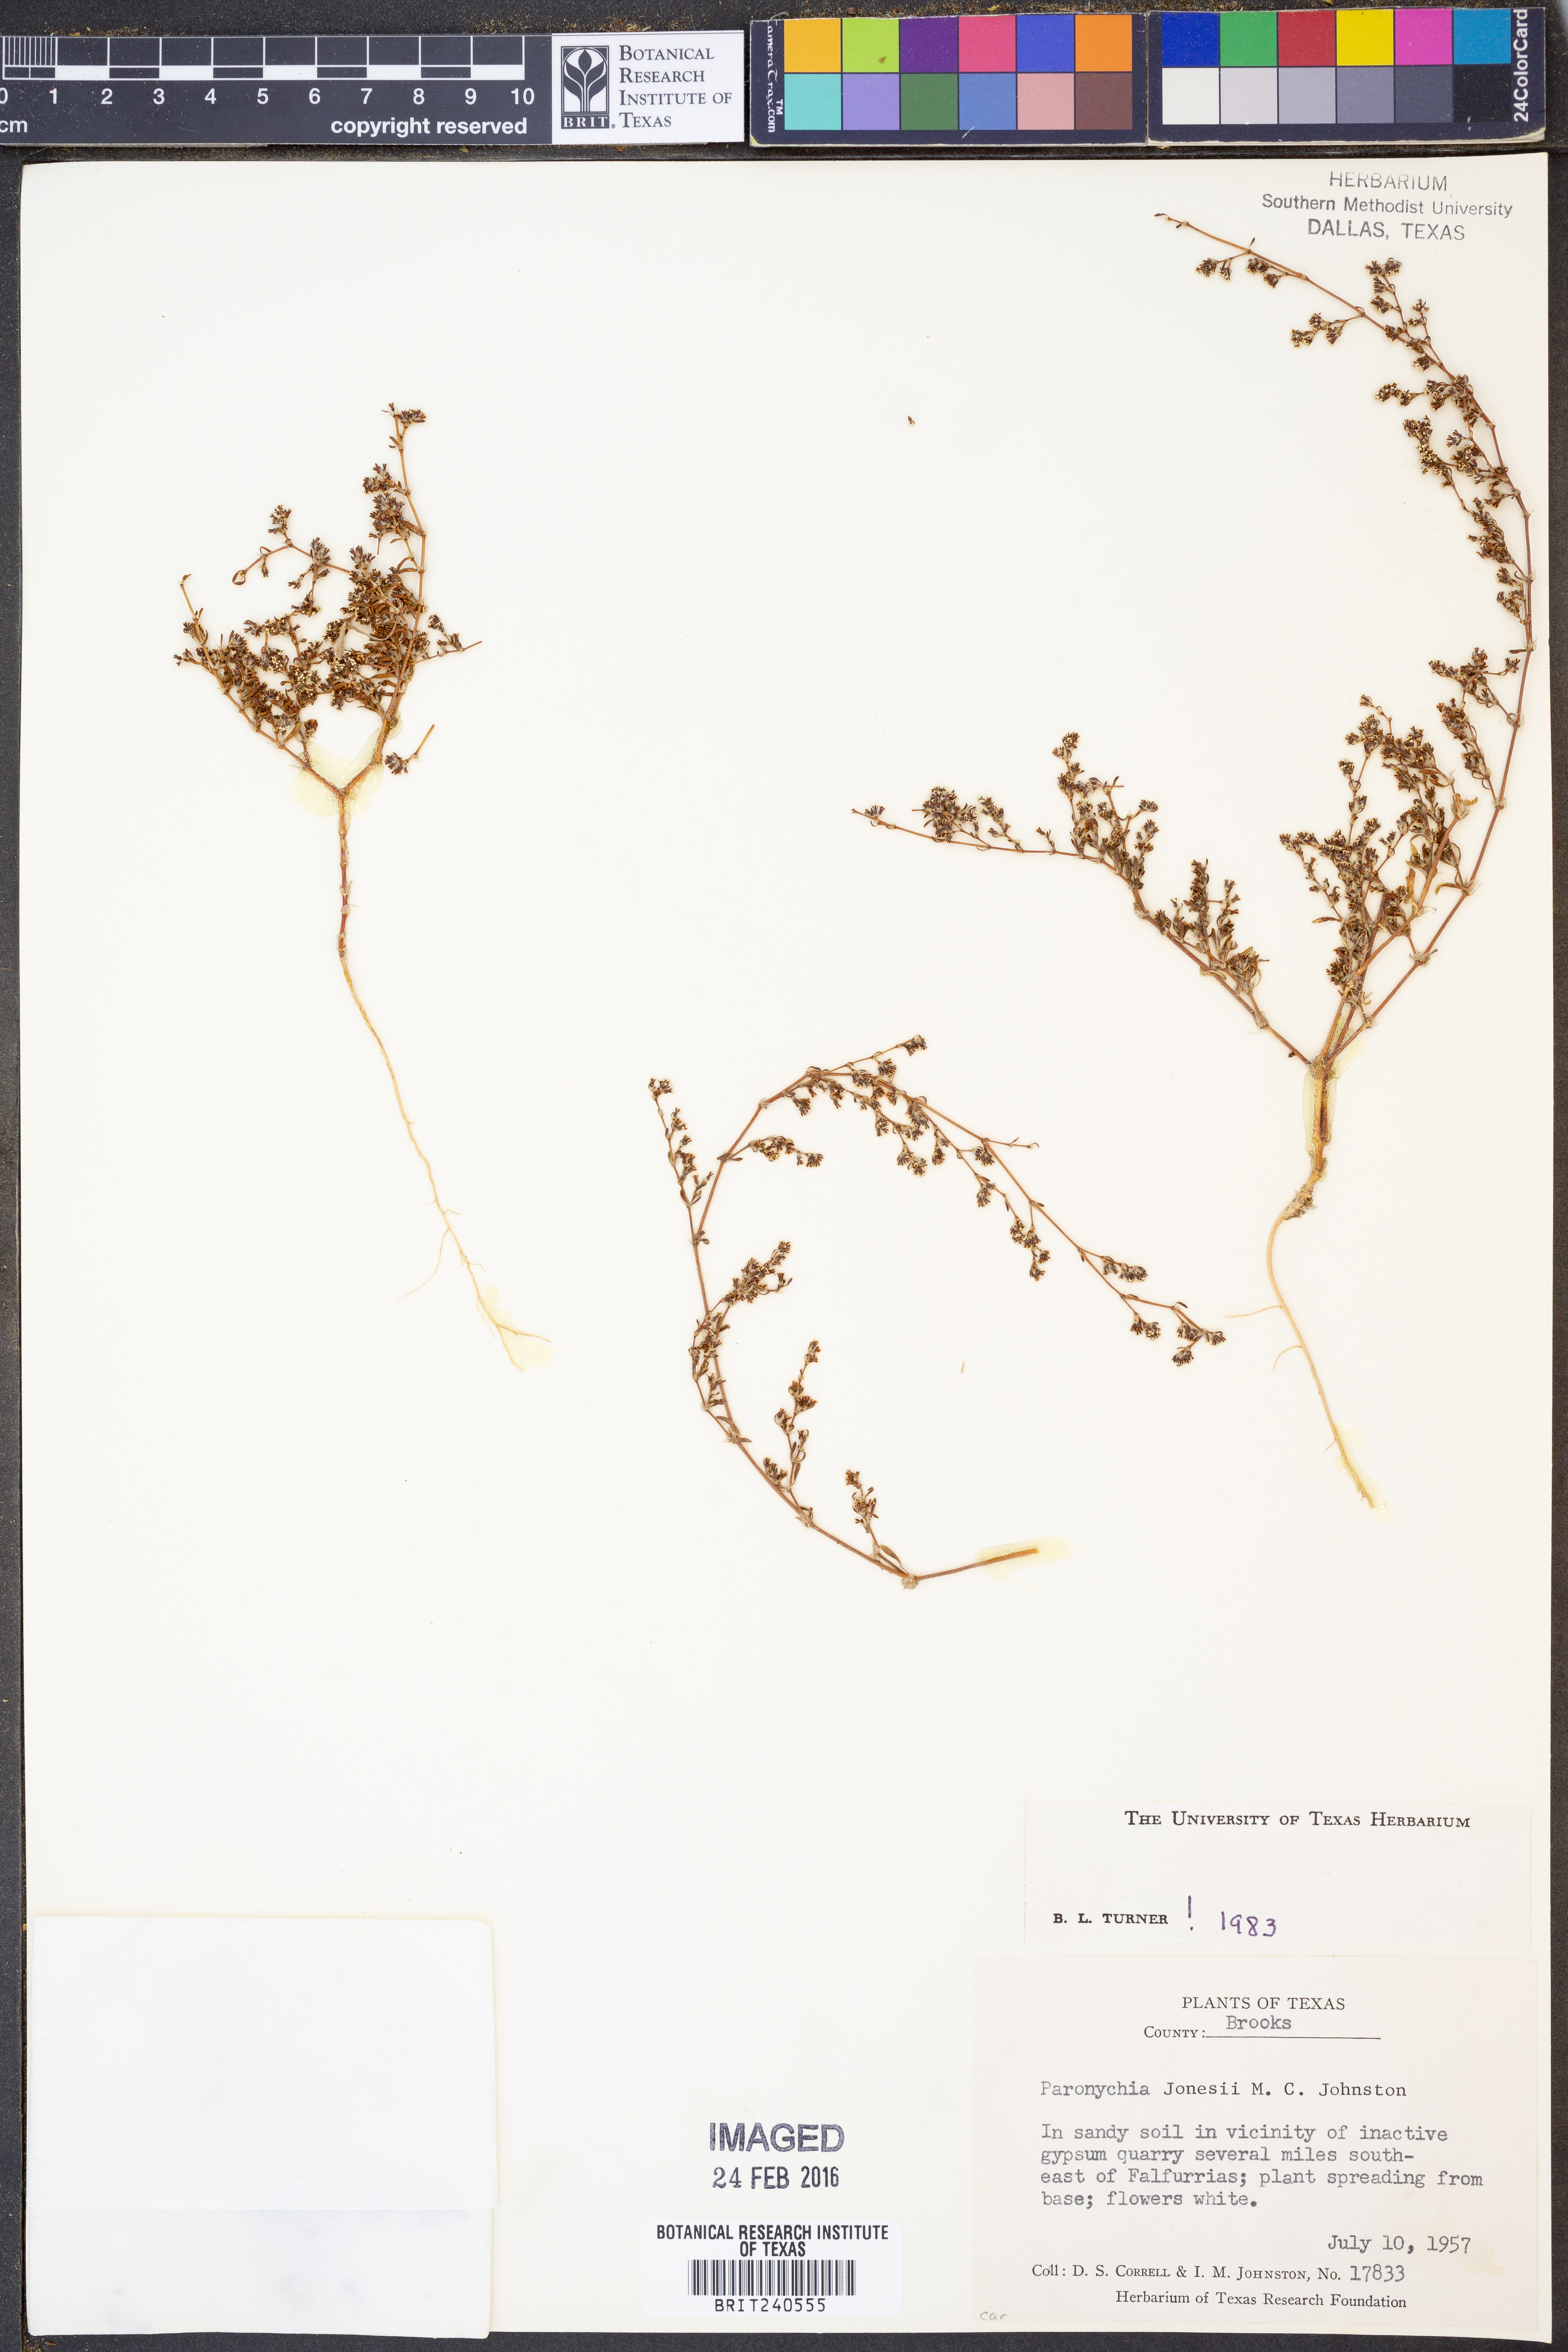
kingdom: Plantae
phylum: Tracheophyta
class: Magnoliopsida
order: Caryophyllales
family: Caryophyllaceae
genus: Paronychia
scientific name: Paronychia jonesii
